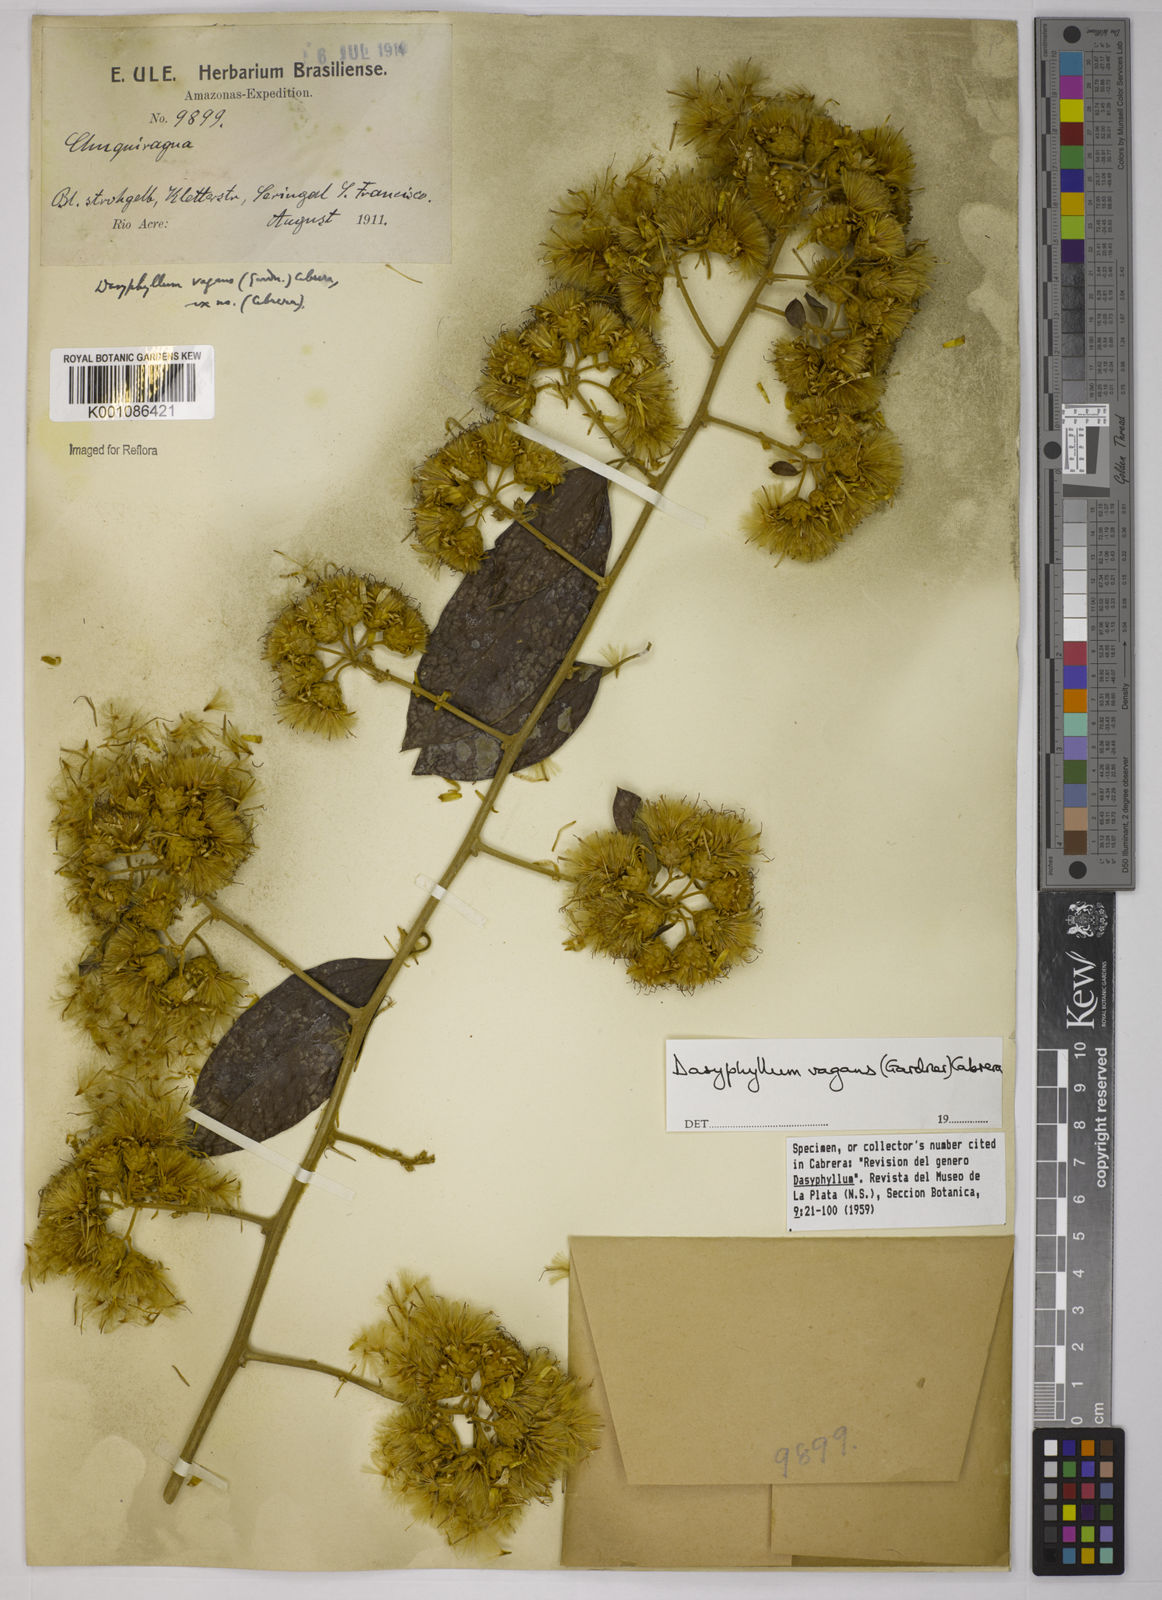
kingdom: Plantae
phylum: Tracheophyta
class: Magnoliopsida
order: Asterales
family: Asteraceae
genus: Dasyphyllum
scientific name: Dasyphyllum vagans
